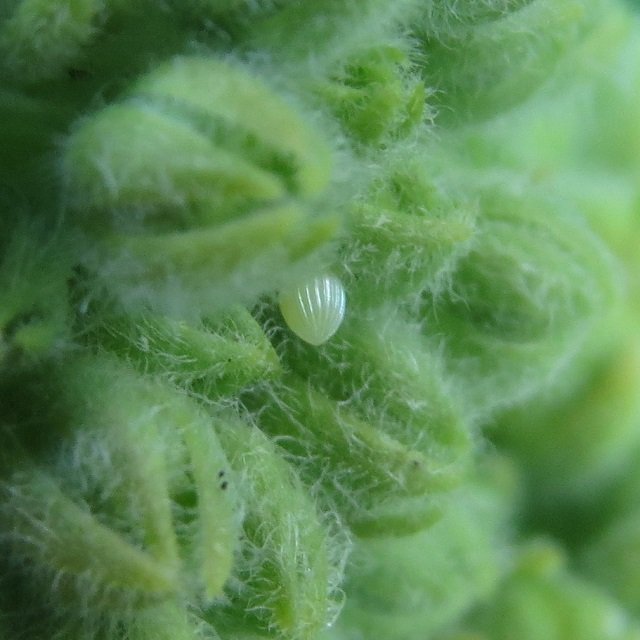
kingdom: Animalia
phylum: Arthropoda
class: Insecta
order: Lepidoptera
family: Nymphalidae
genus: Danaus
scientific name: Danaus plexippus
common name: Monarch
